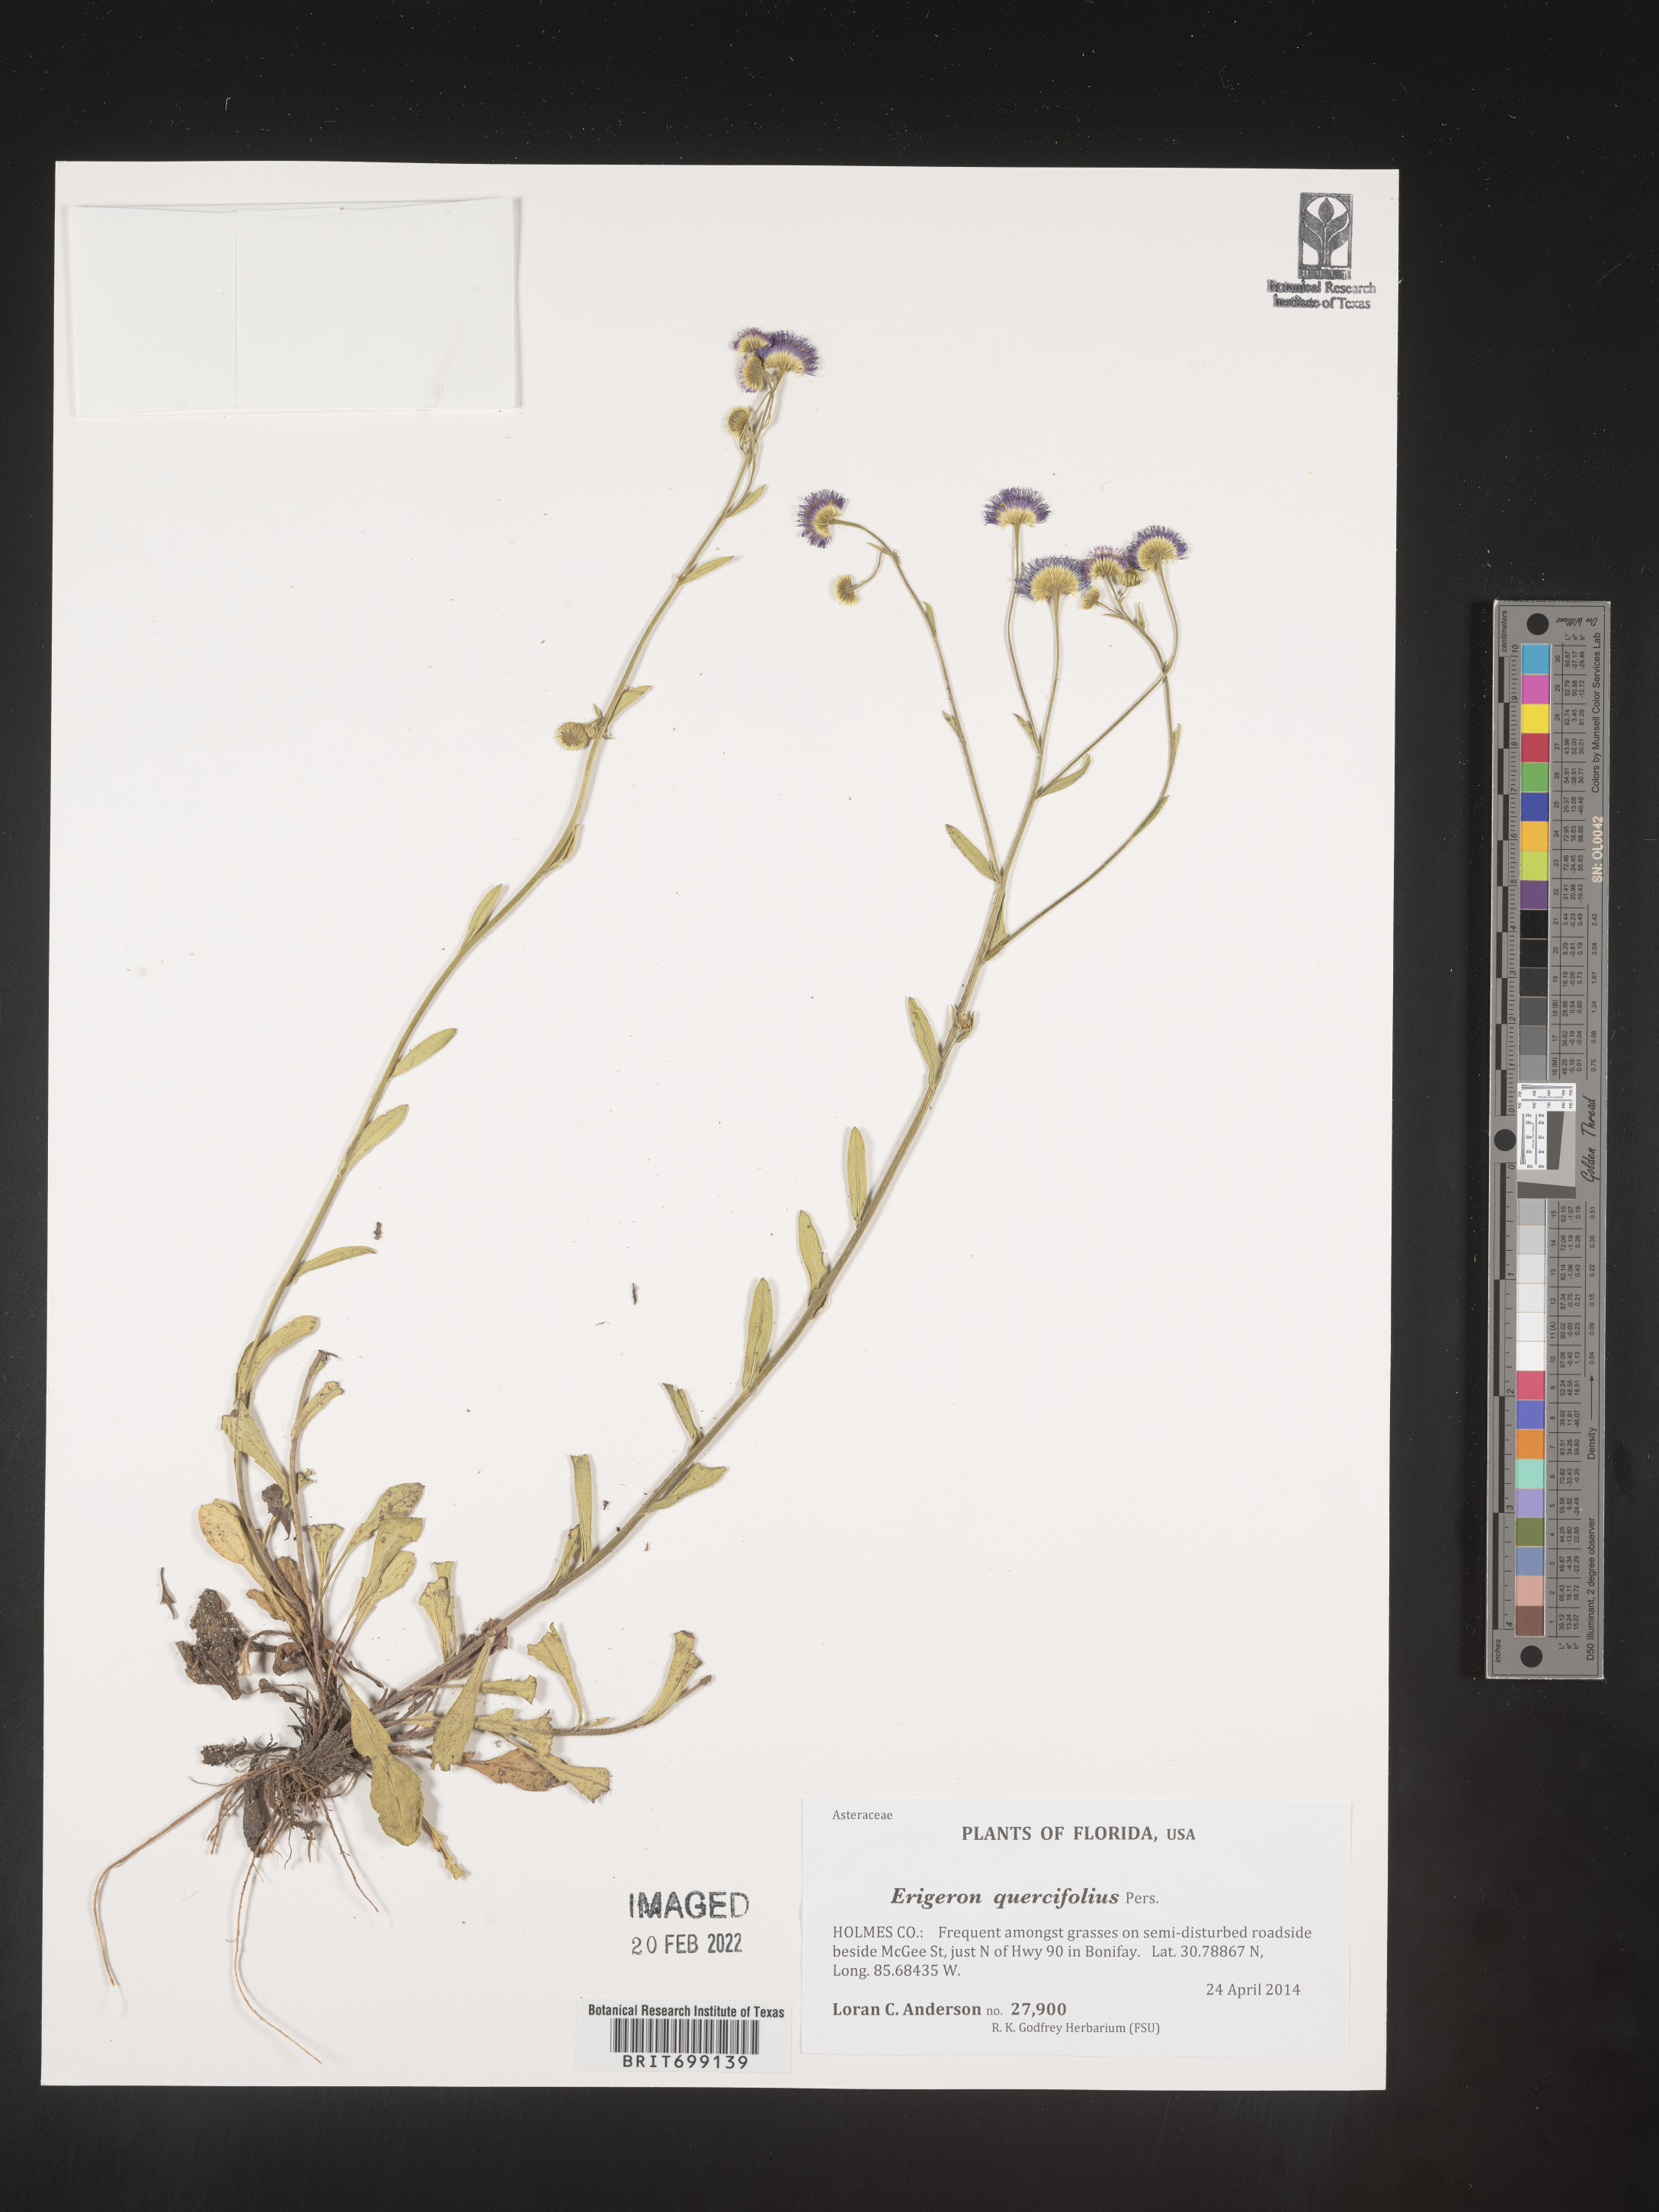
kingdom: Plantae
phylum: Tracheophyta
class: Magnoliopsida
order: Asterales
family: Asteraceae
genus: Erigeron
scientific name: Erigeron quercifolius
